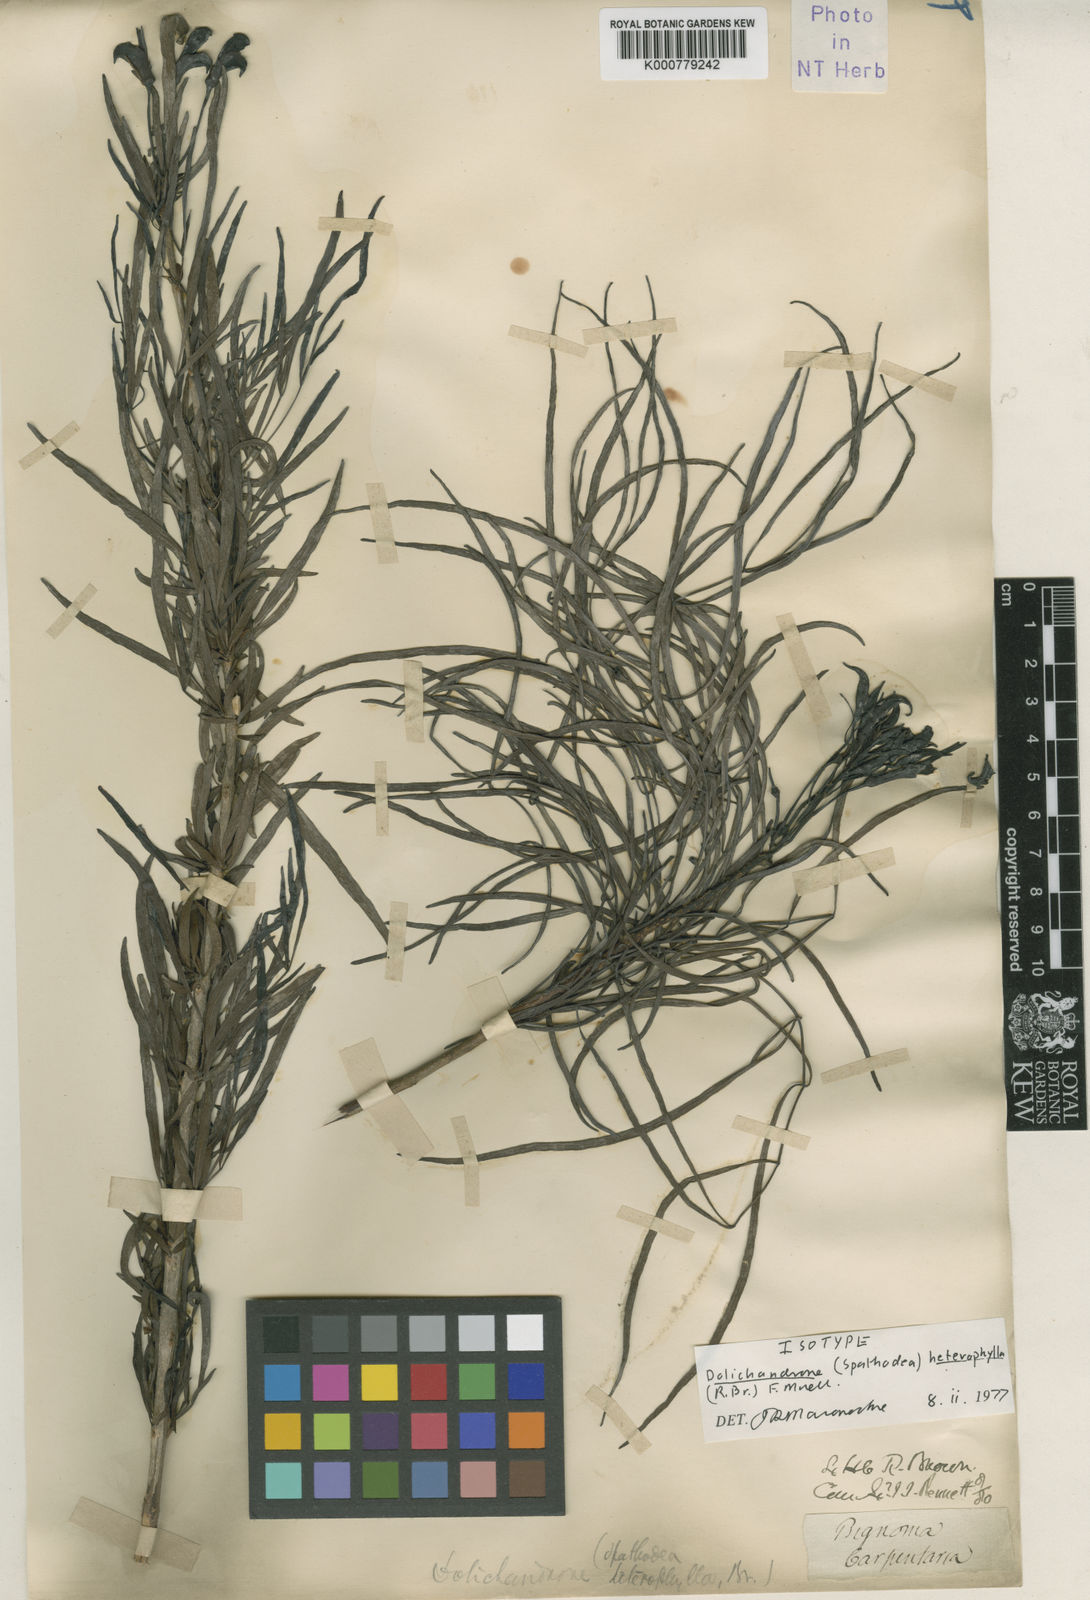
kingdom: Plantae
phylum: Tracheophyta
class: Magnoliopsida
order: Lamiales
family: Bignoniaceae
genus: Dolichandrone
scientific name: Dolichandrone heterophylla
